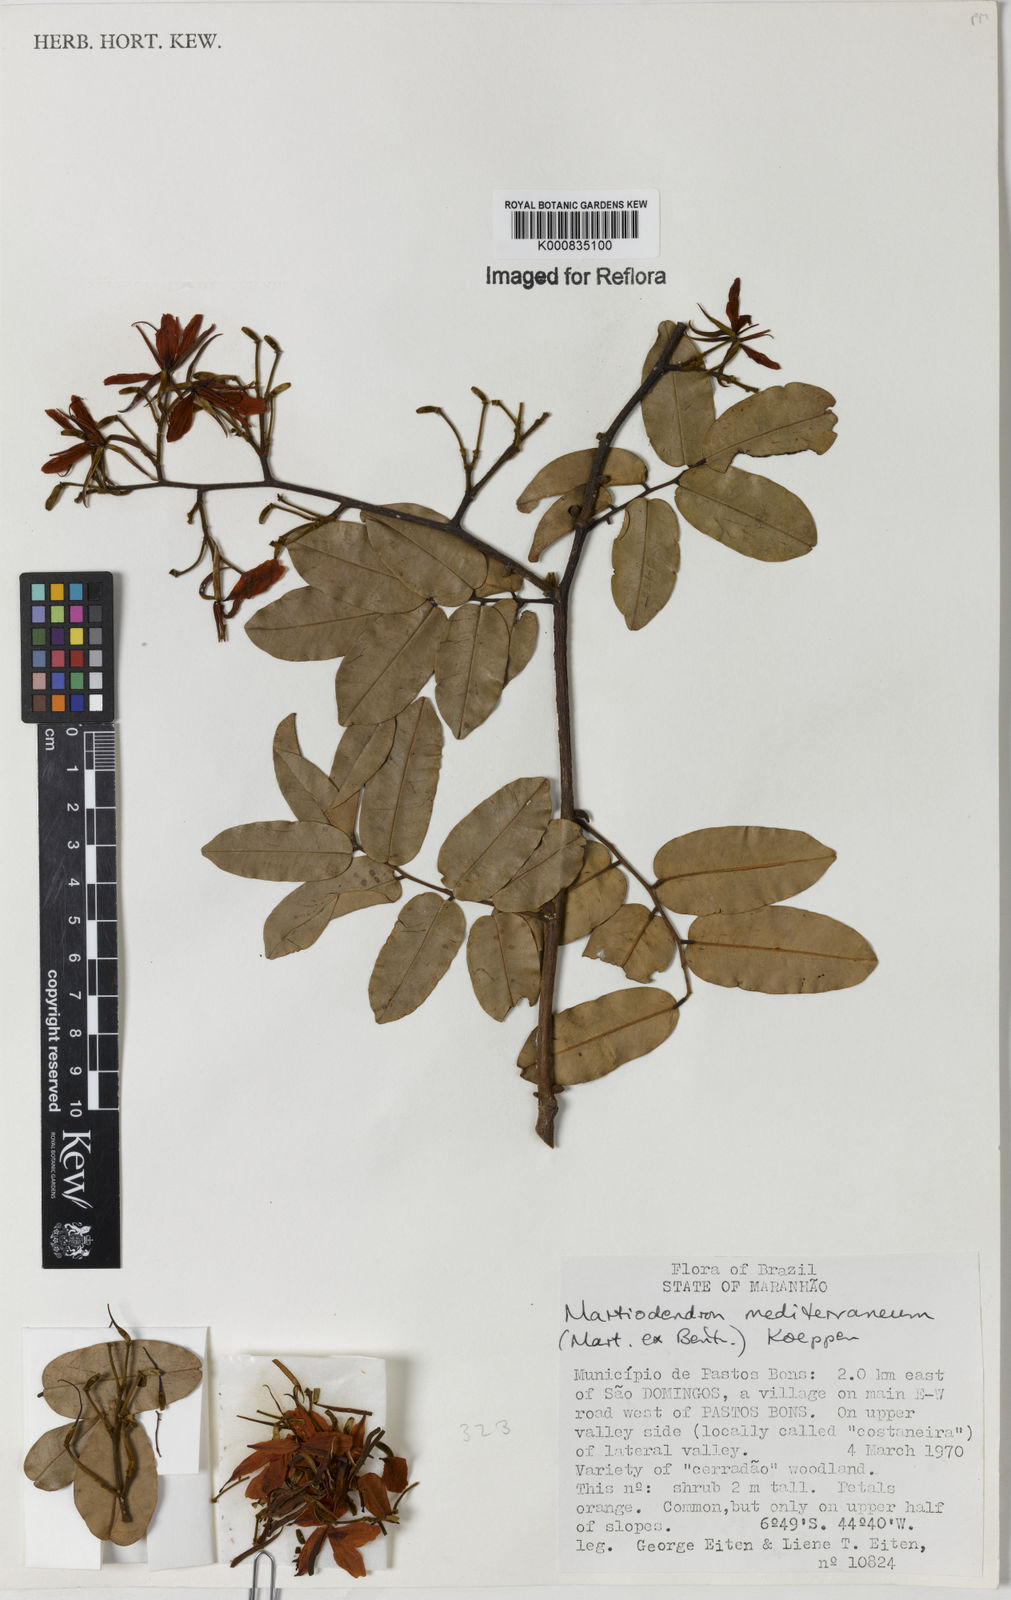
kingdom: Plantae
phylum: Tracheophyta
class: Magnoliopsida
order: Fabales
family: Fabaceae
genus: Martiodendron
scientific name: Martiodendron
